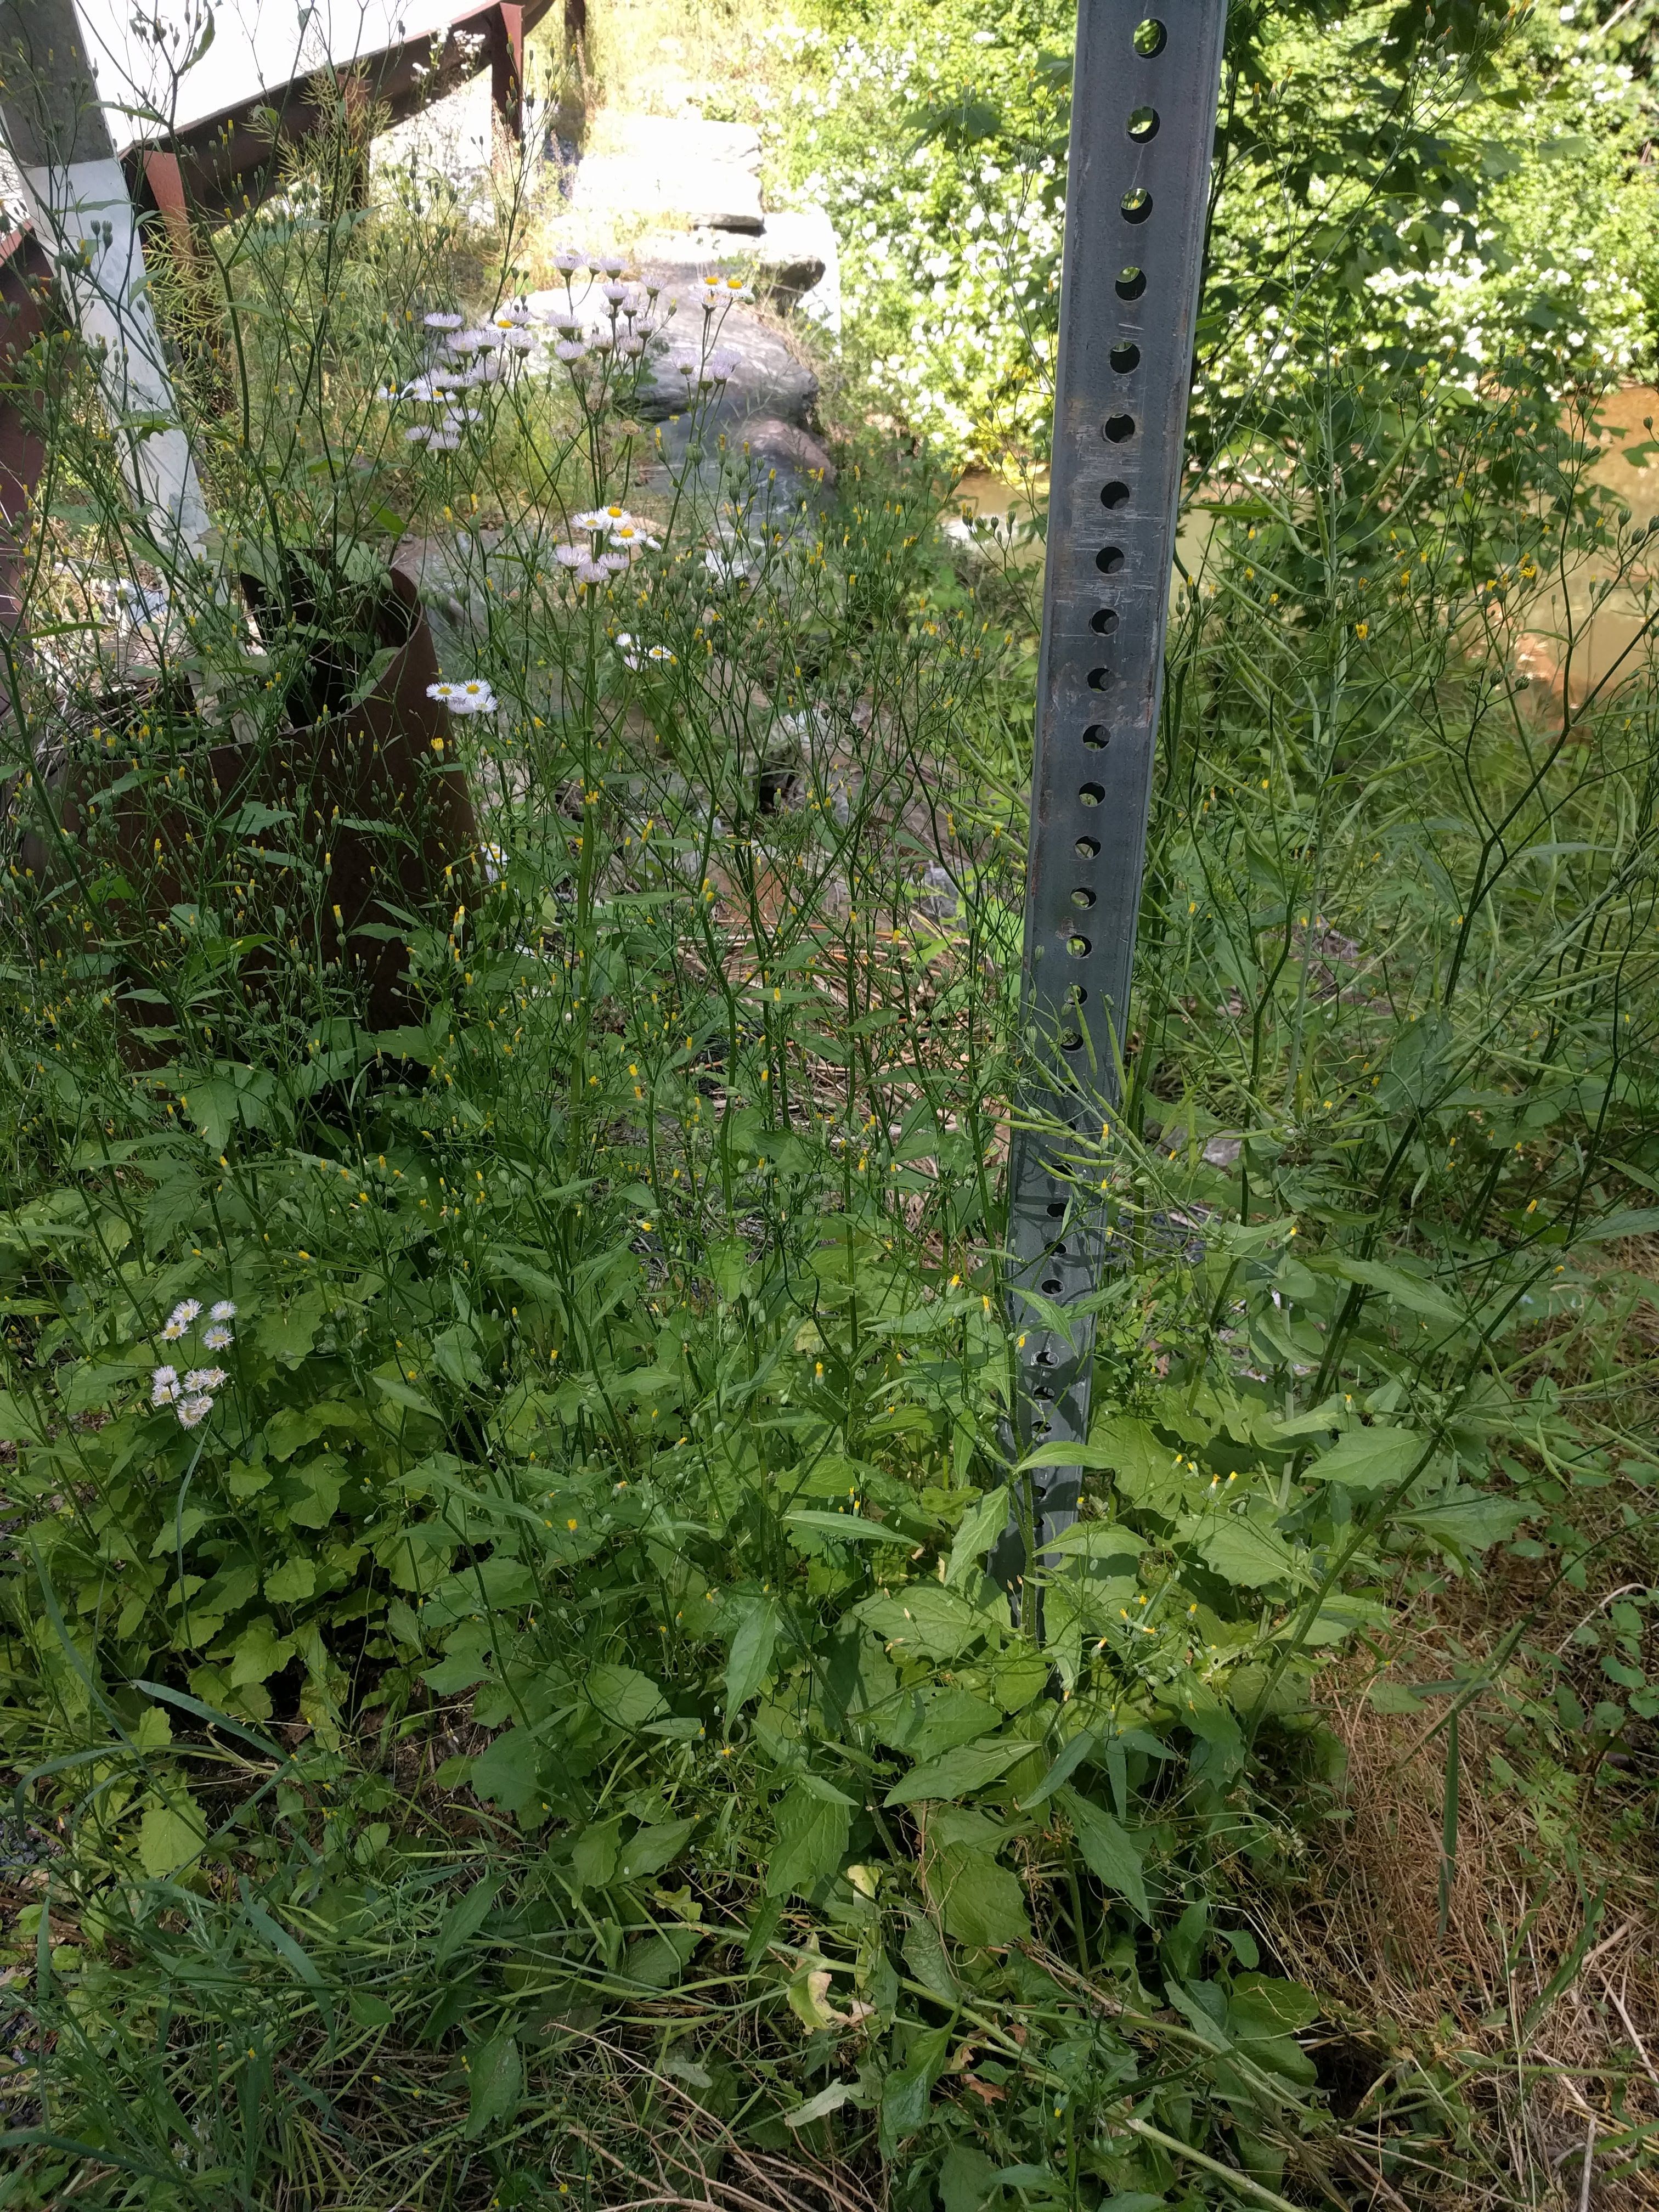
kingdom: Plantae
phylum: Tracheophyta
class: Magnoliopsida
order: Asterales
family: Asteraceae
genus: Lapsana
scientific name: Lapsana communis
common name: Nipplewort
